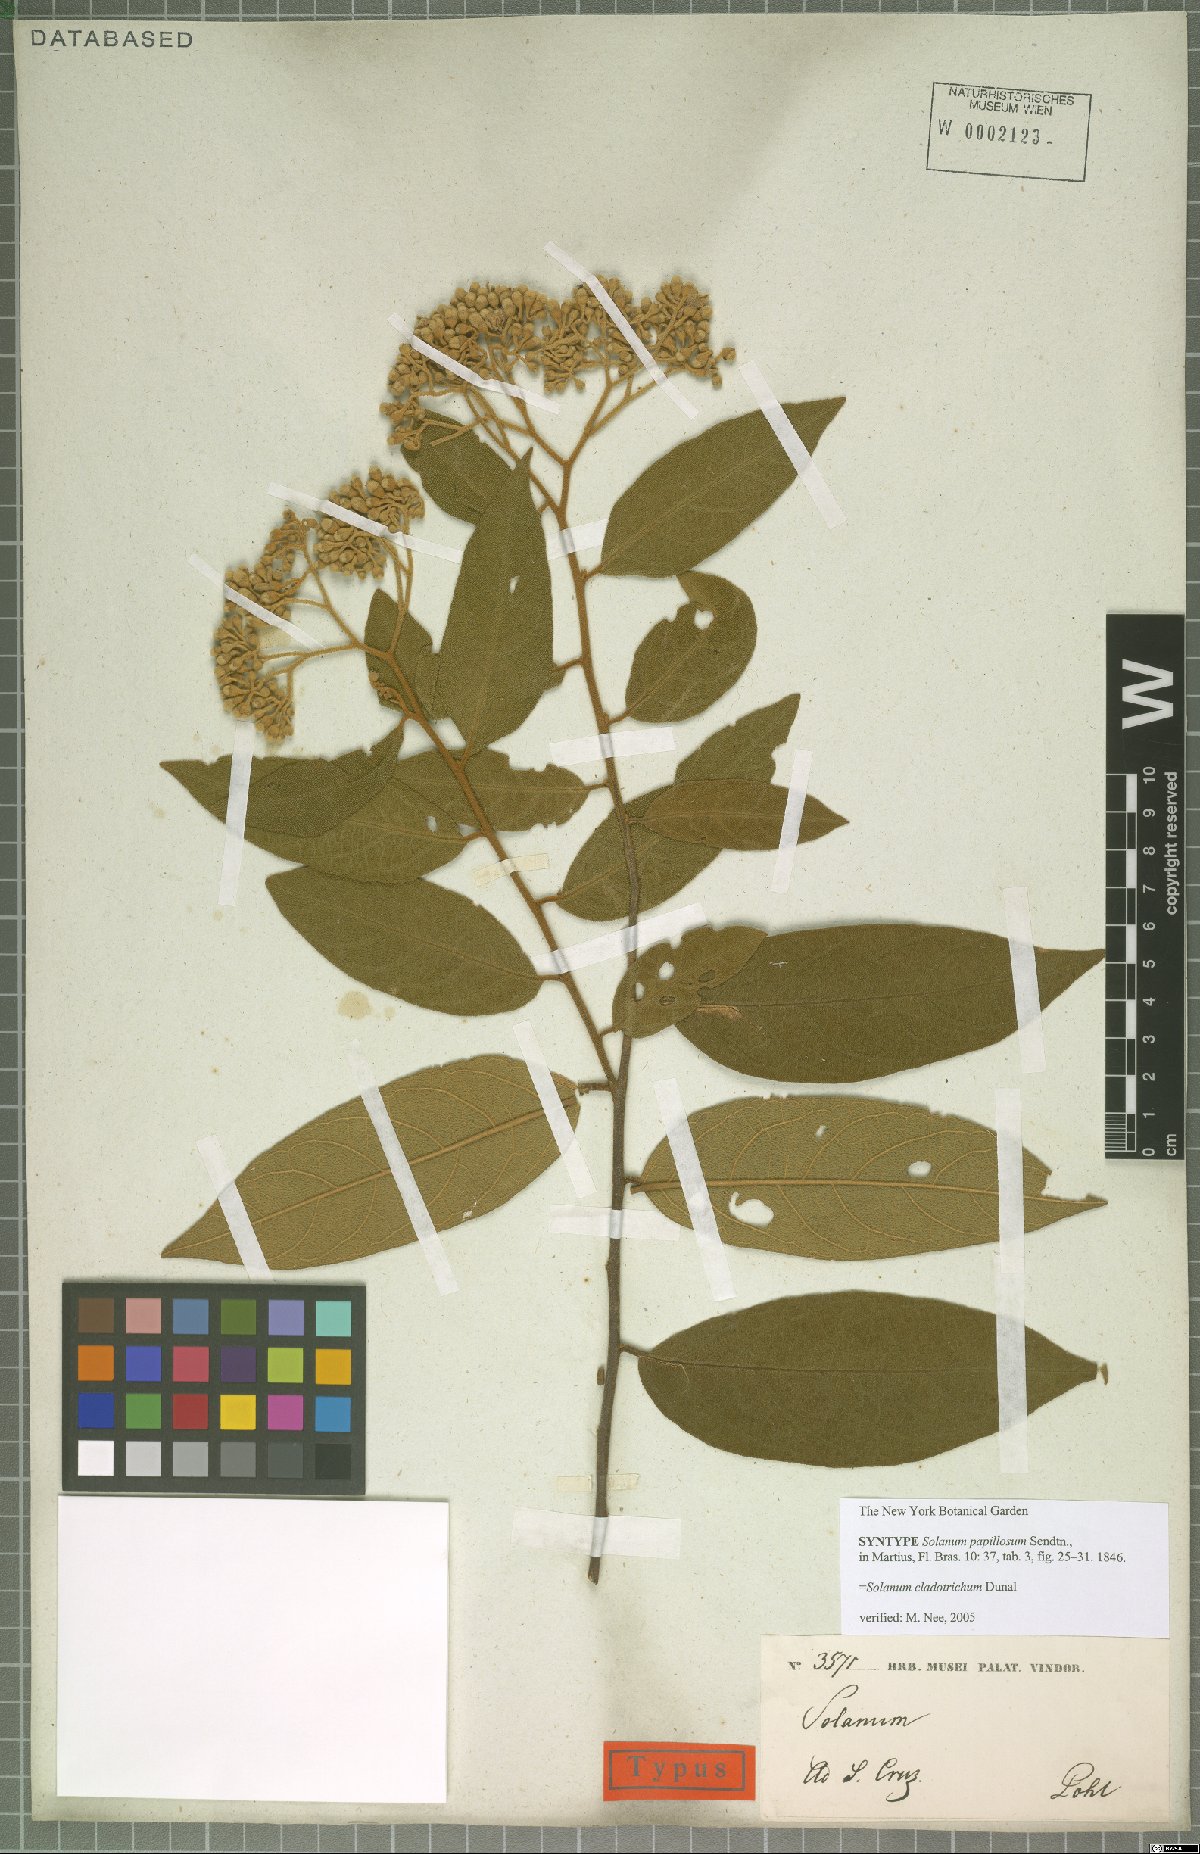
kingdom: Plantae
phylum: Tracheophyta
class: Magnoliopsida
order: Solanales
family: Solanaceae
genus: Solanum
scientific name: Solanum jussiaei
